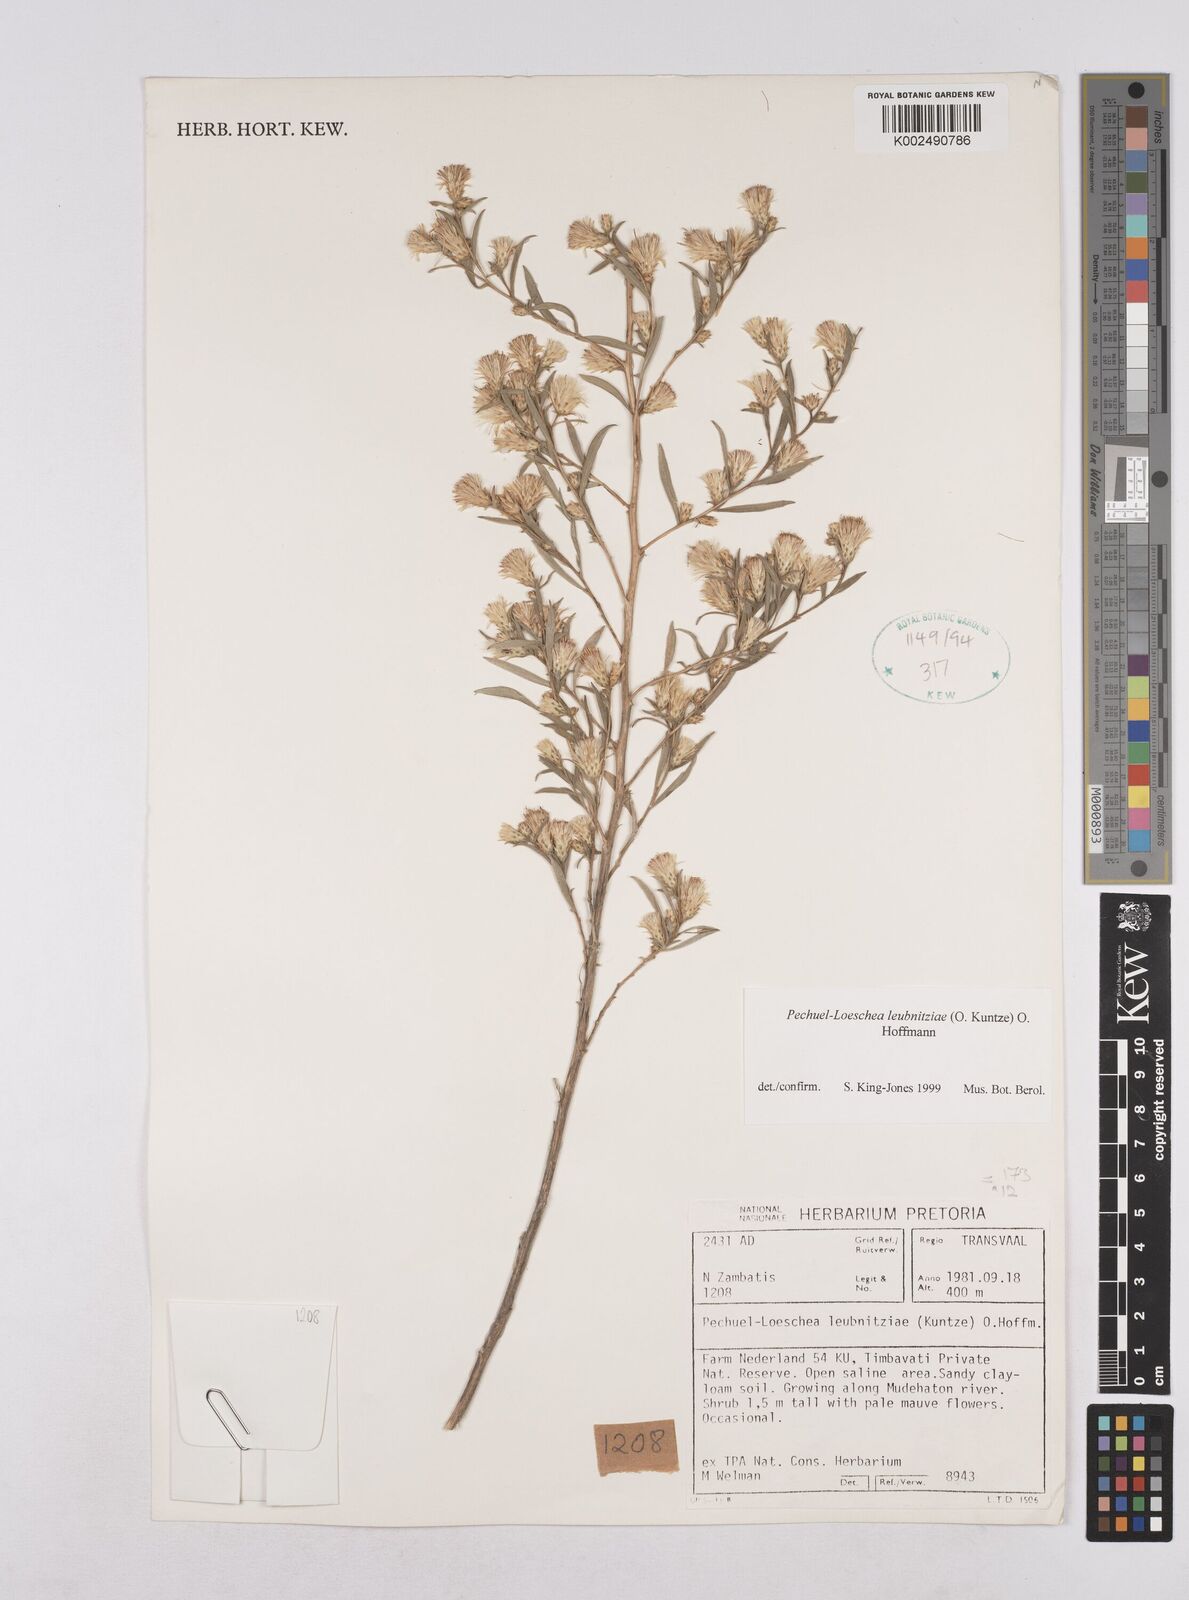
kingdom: Plantae
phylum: Tracheophyta
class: Magnoliopsida
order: Asterales
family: Asteraceae
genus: Pechuel-loeschea
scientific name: Pechuel-loeschea leubnitziae
